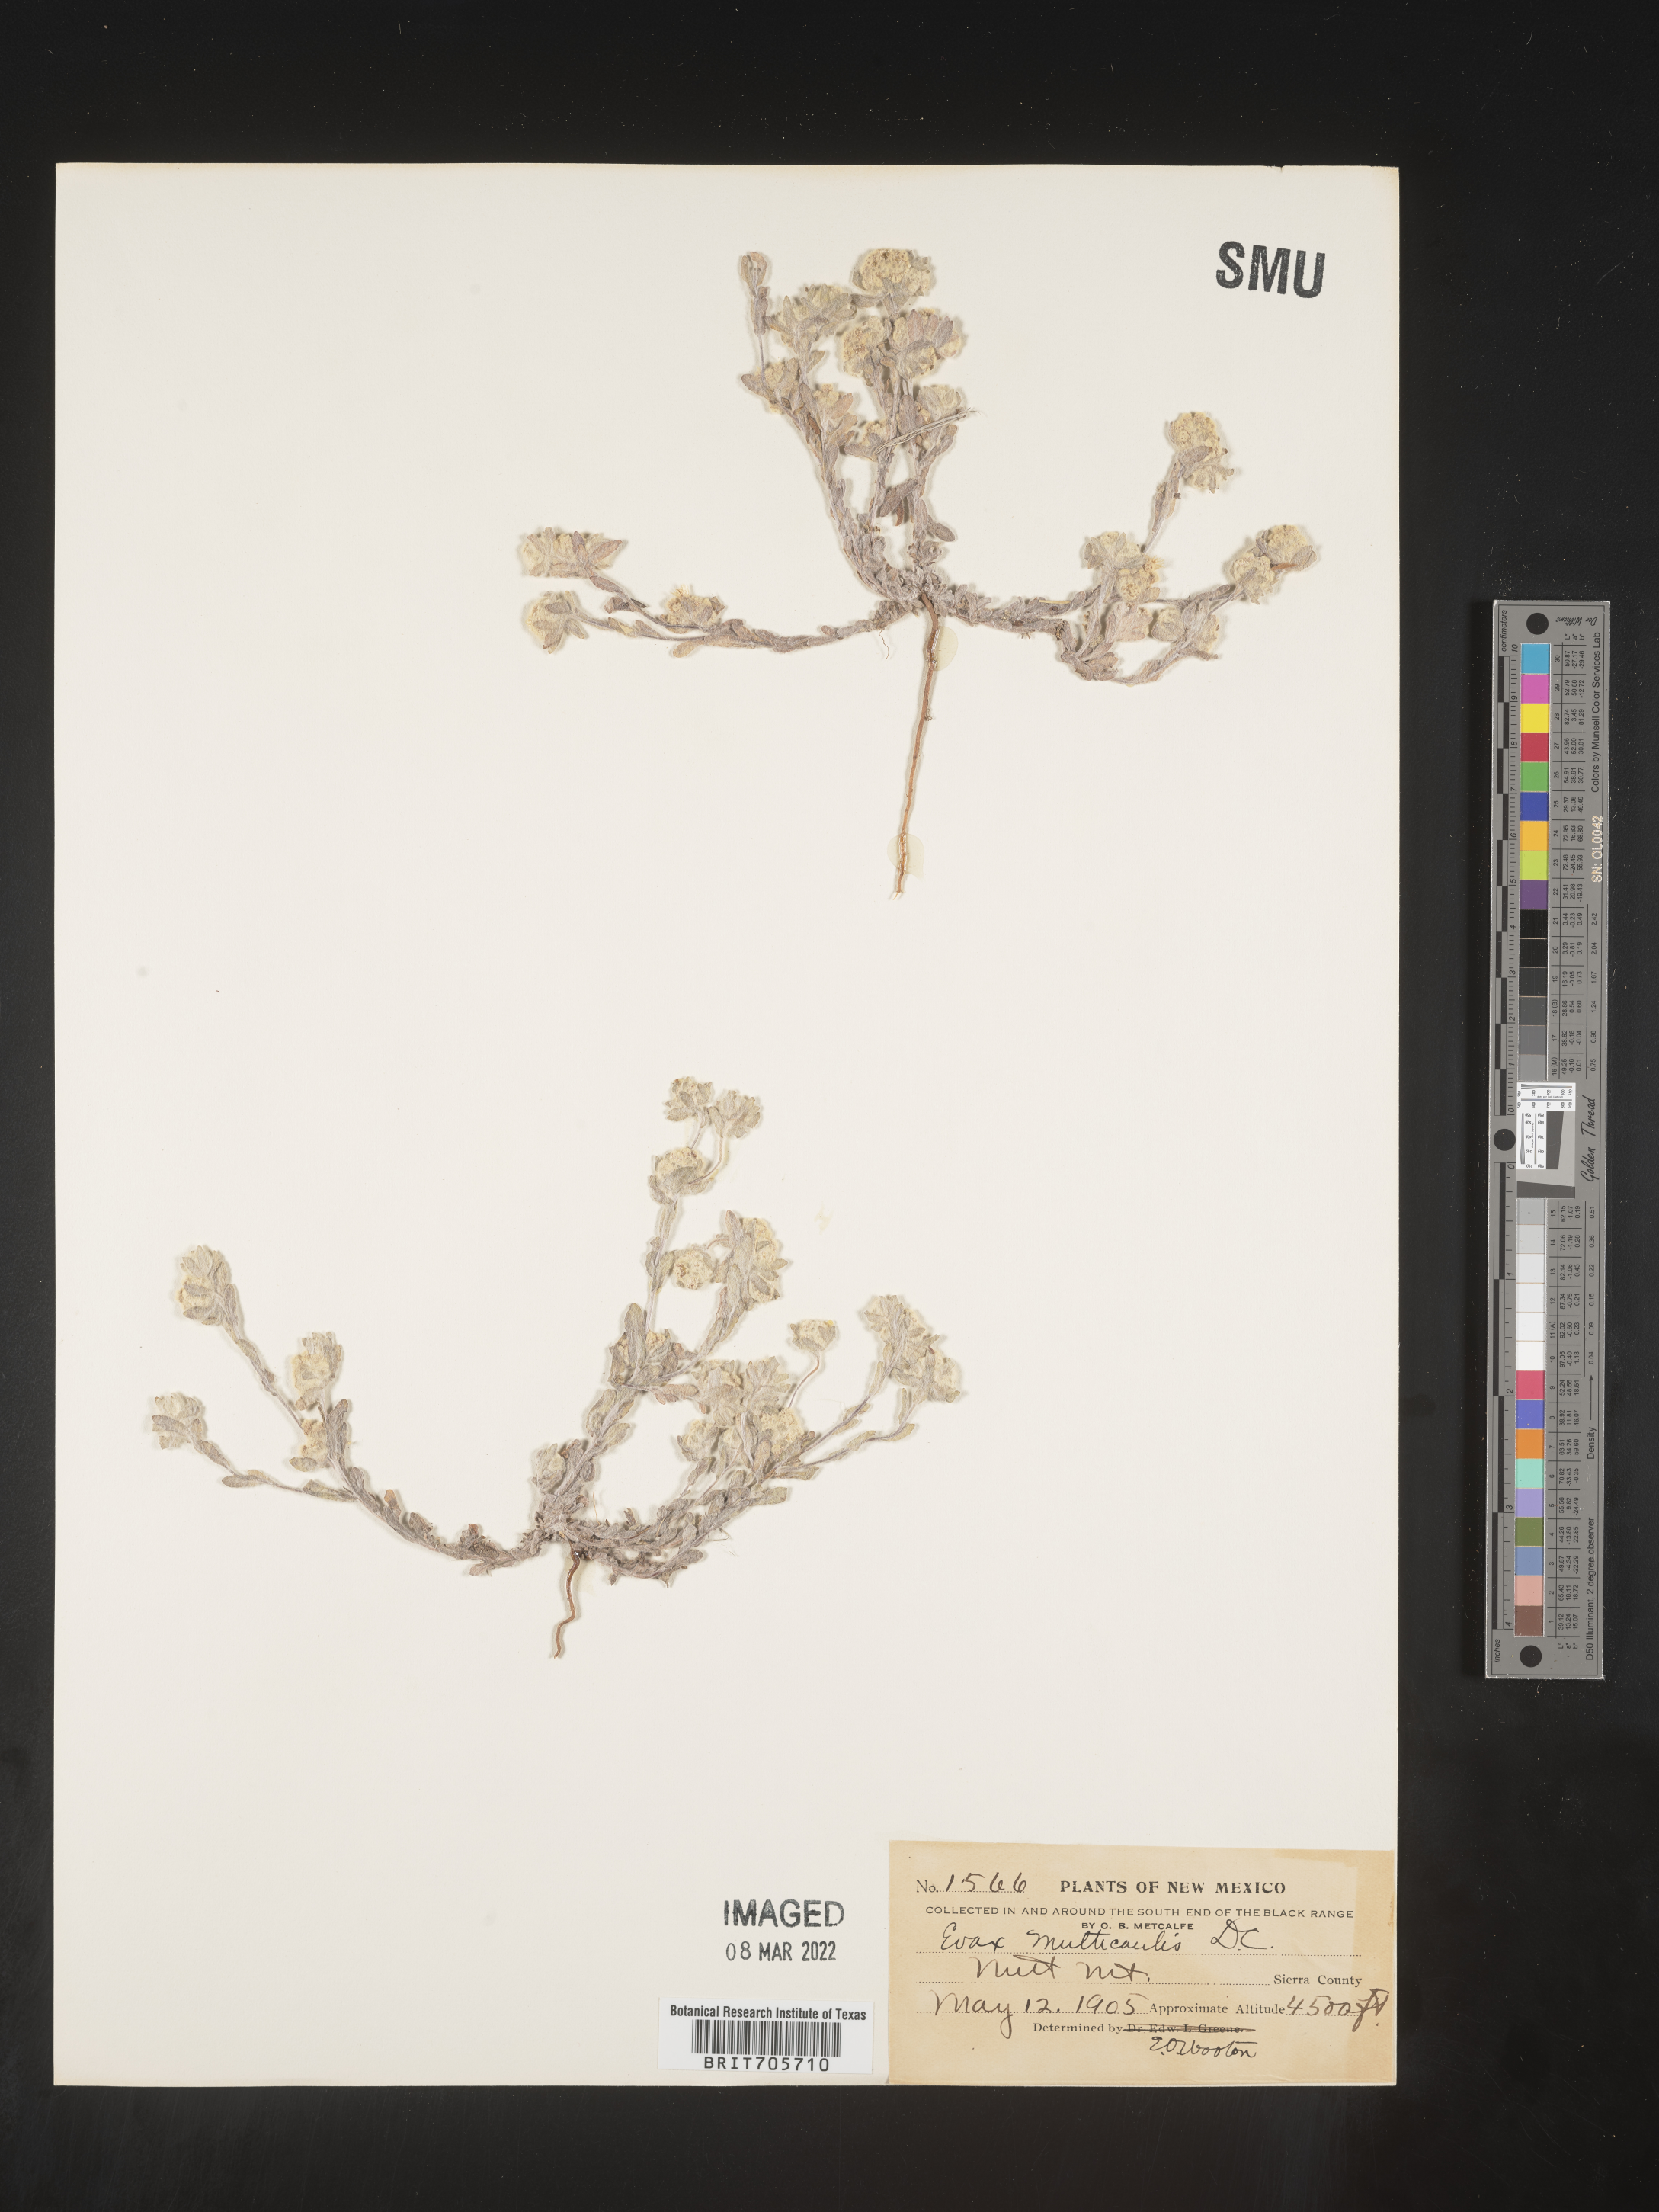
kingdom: Plantae
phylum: Tracheophyta
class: Magnoliopsida
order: Asterales
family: Asteraceae
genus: Diaperia
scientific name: Diaperia verna
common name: Many-stem rabbit-tobacco
